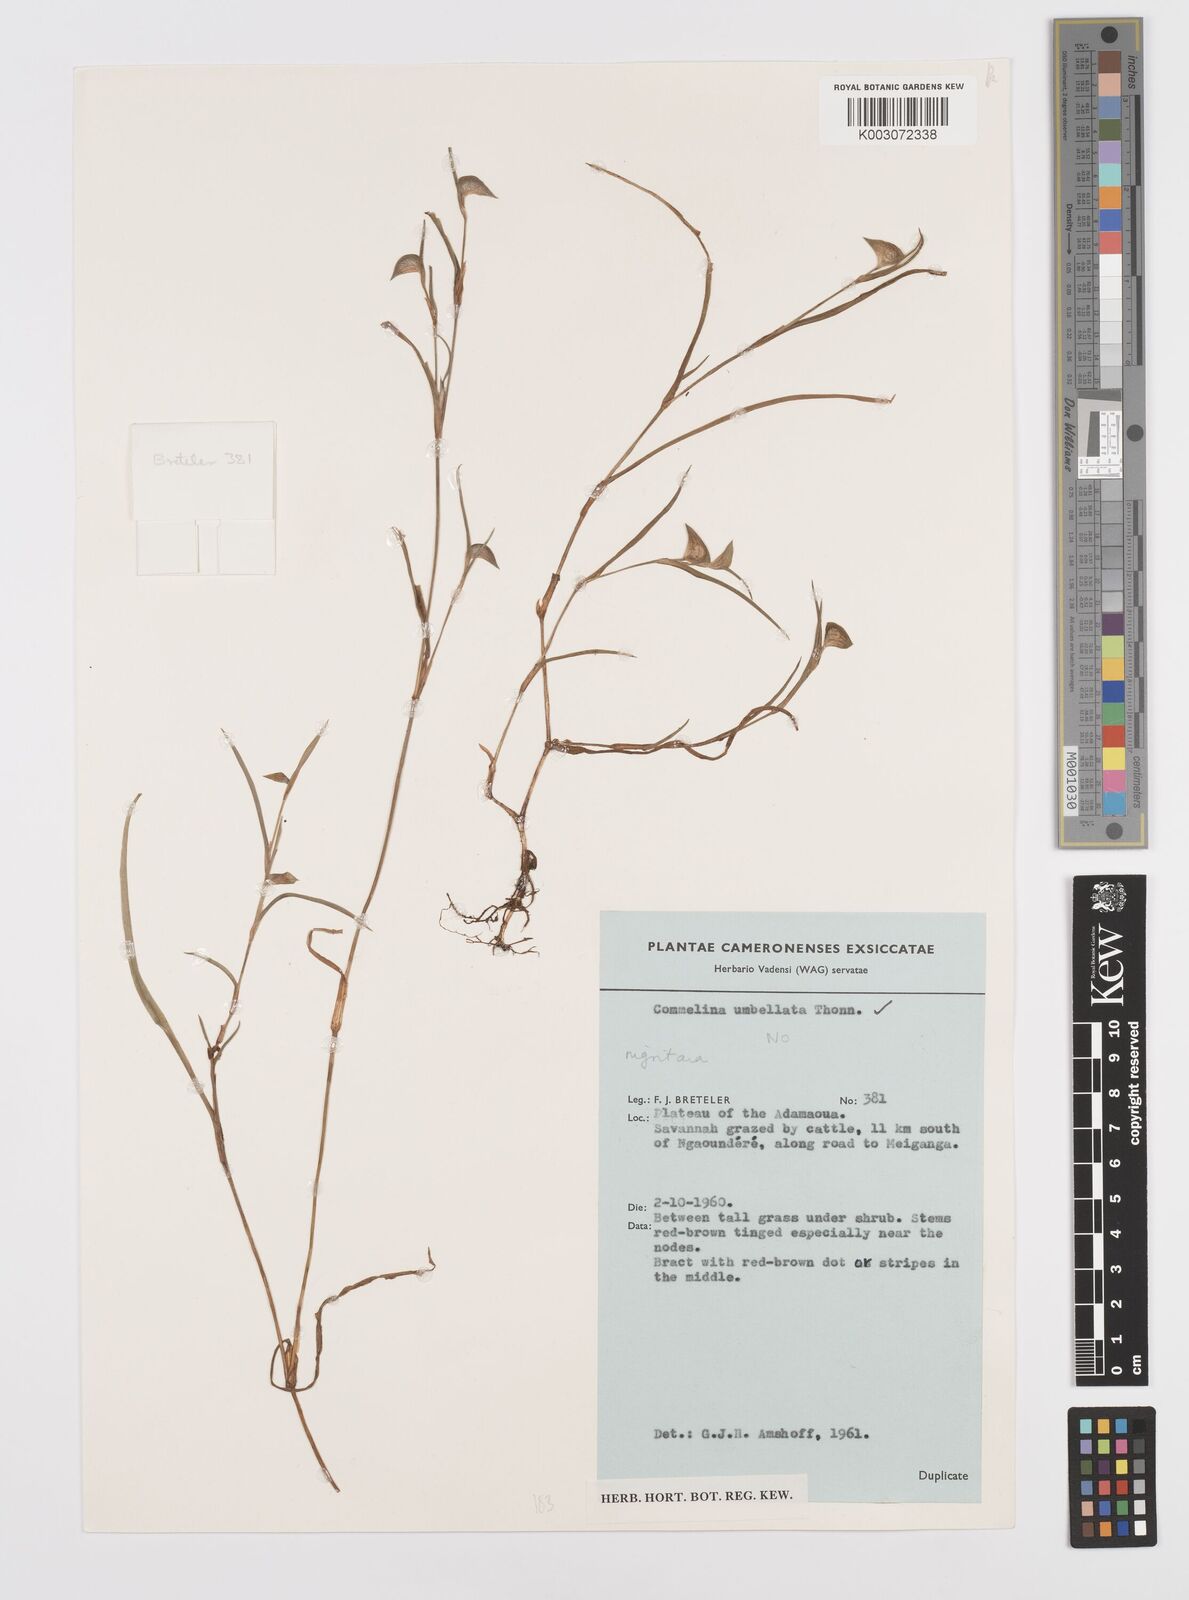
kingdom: Plantae
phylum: Tracheophyta
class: Liliopsida
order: Commelinales
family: Commelinaceae
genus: Commelina
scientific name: Commelina
